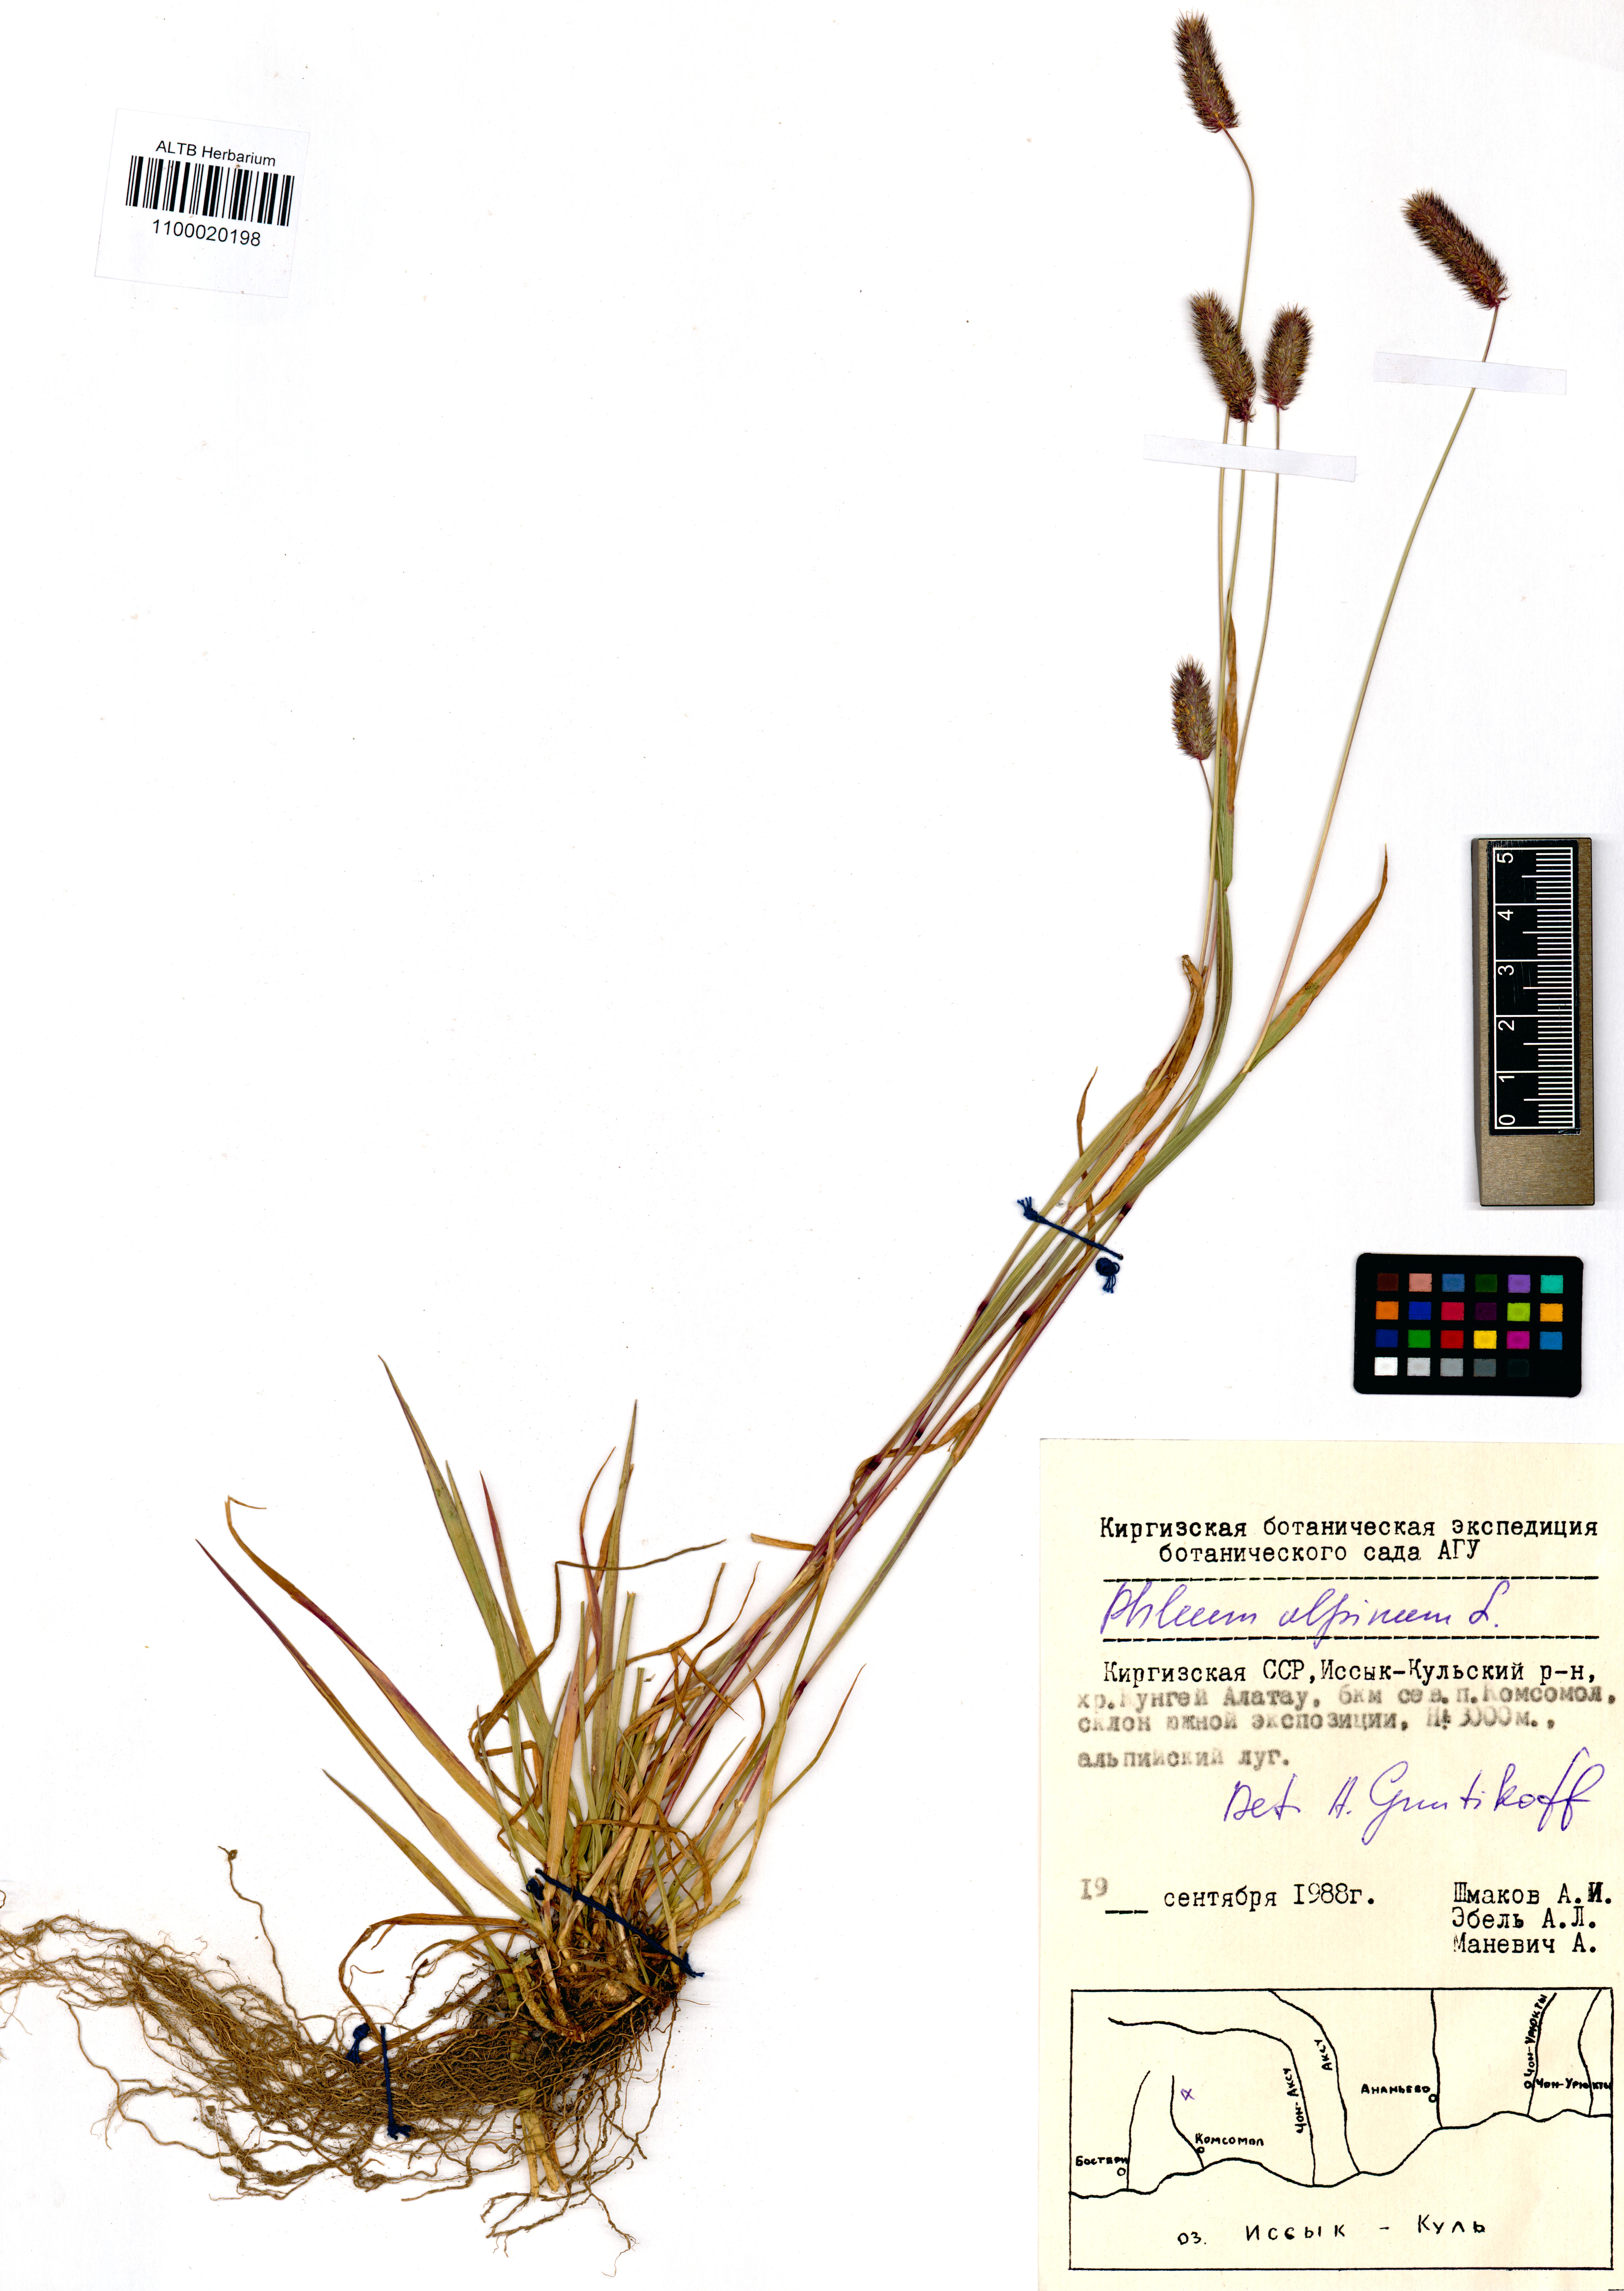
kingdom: Plantae
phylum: Tracheophyta
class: Liliopsida
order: Poales
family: Poaceae
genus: Phleum
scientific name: Phleum alpinum
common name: Alpine cat's-tail
